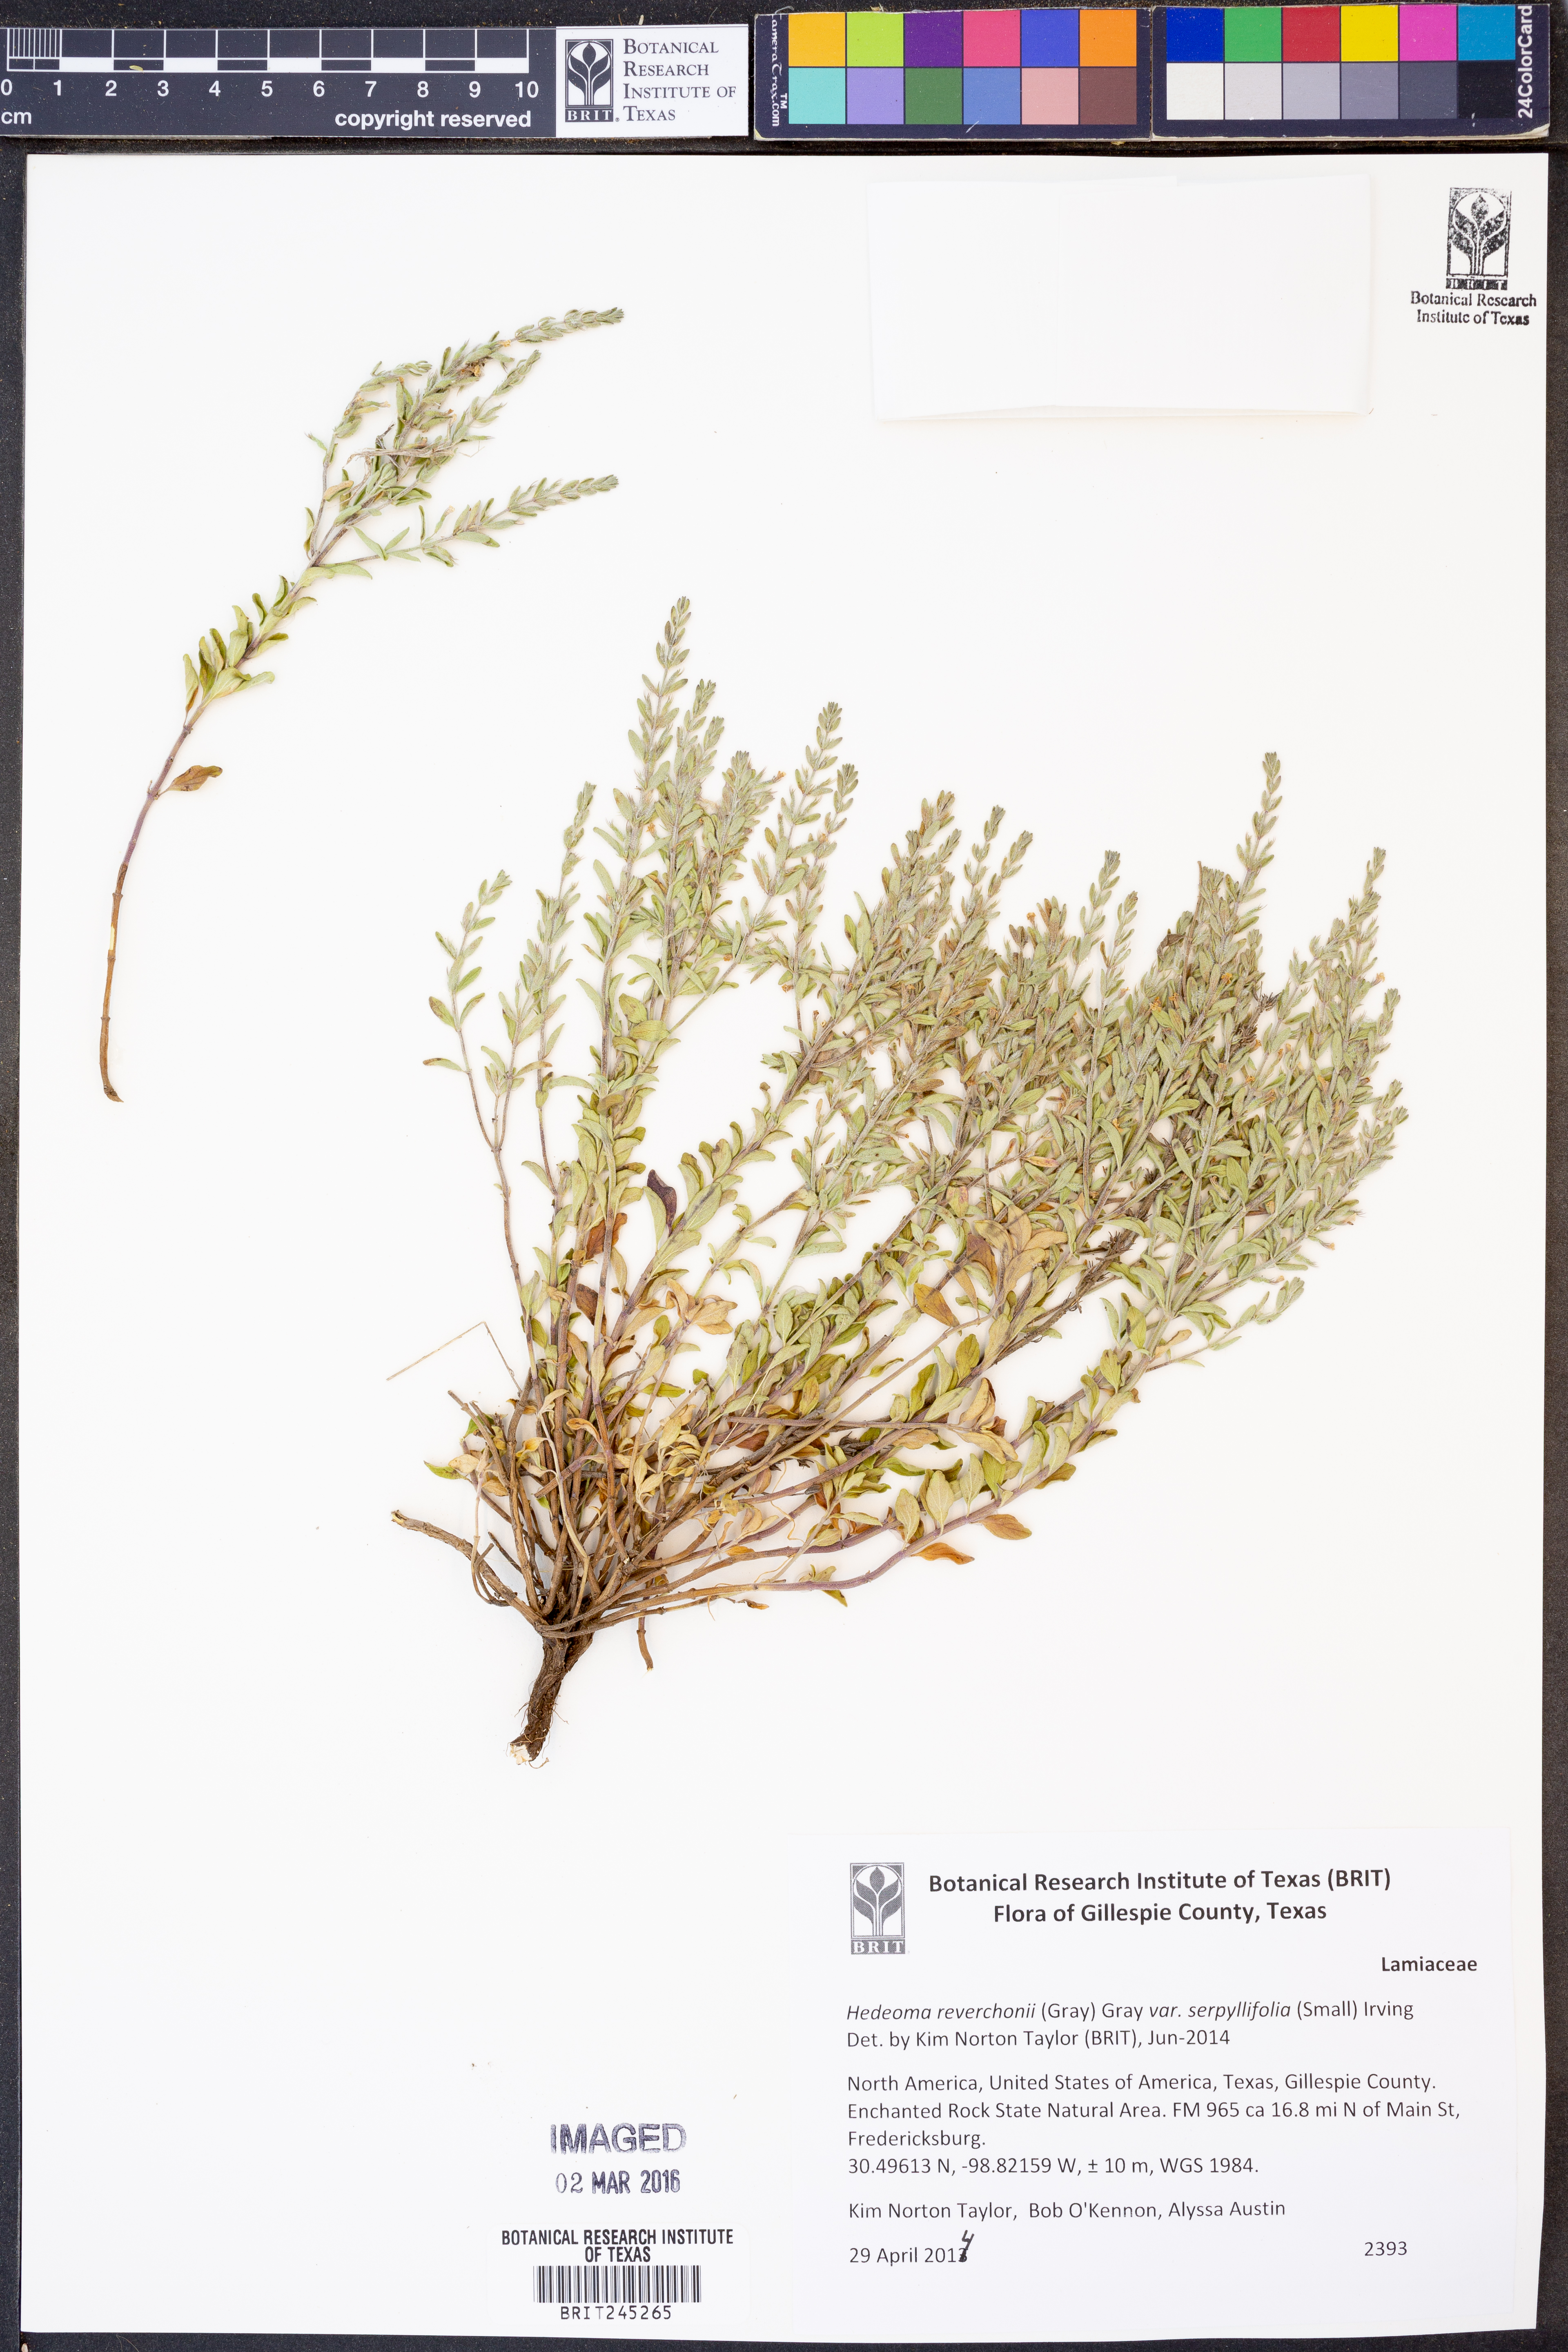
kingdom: Plantae
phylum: Tracheophyta
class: Magnoliopsida
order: Lamiales
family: Lamiaceae
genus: Hedeoma
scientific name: Hedeoma serpyllifolia
